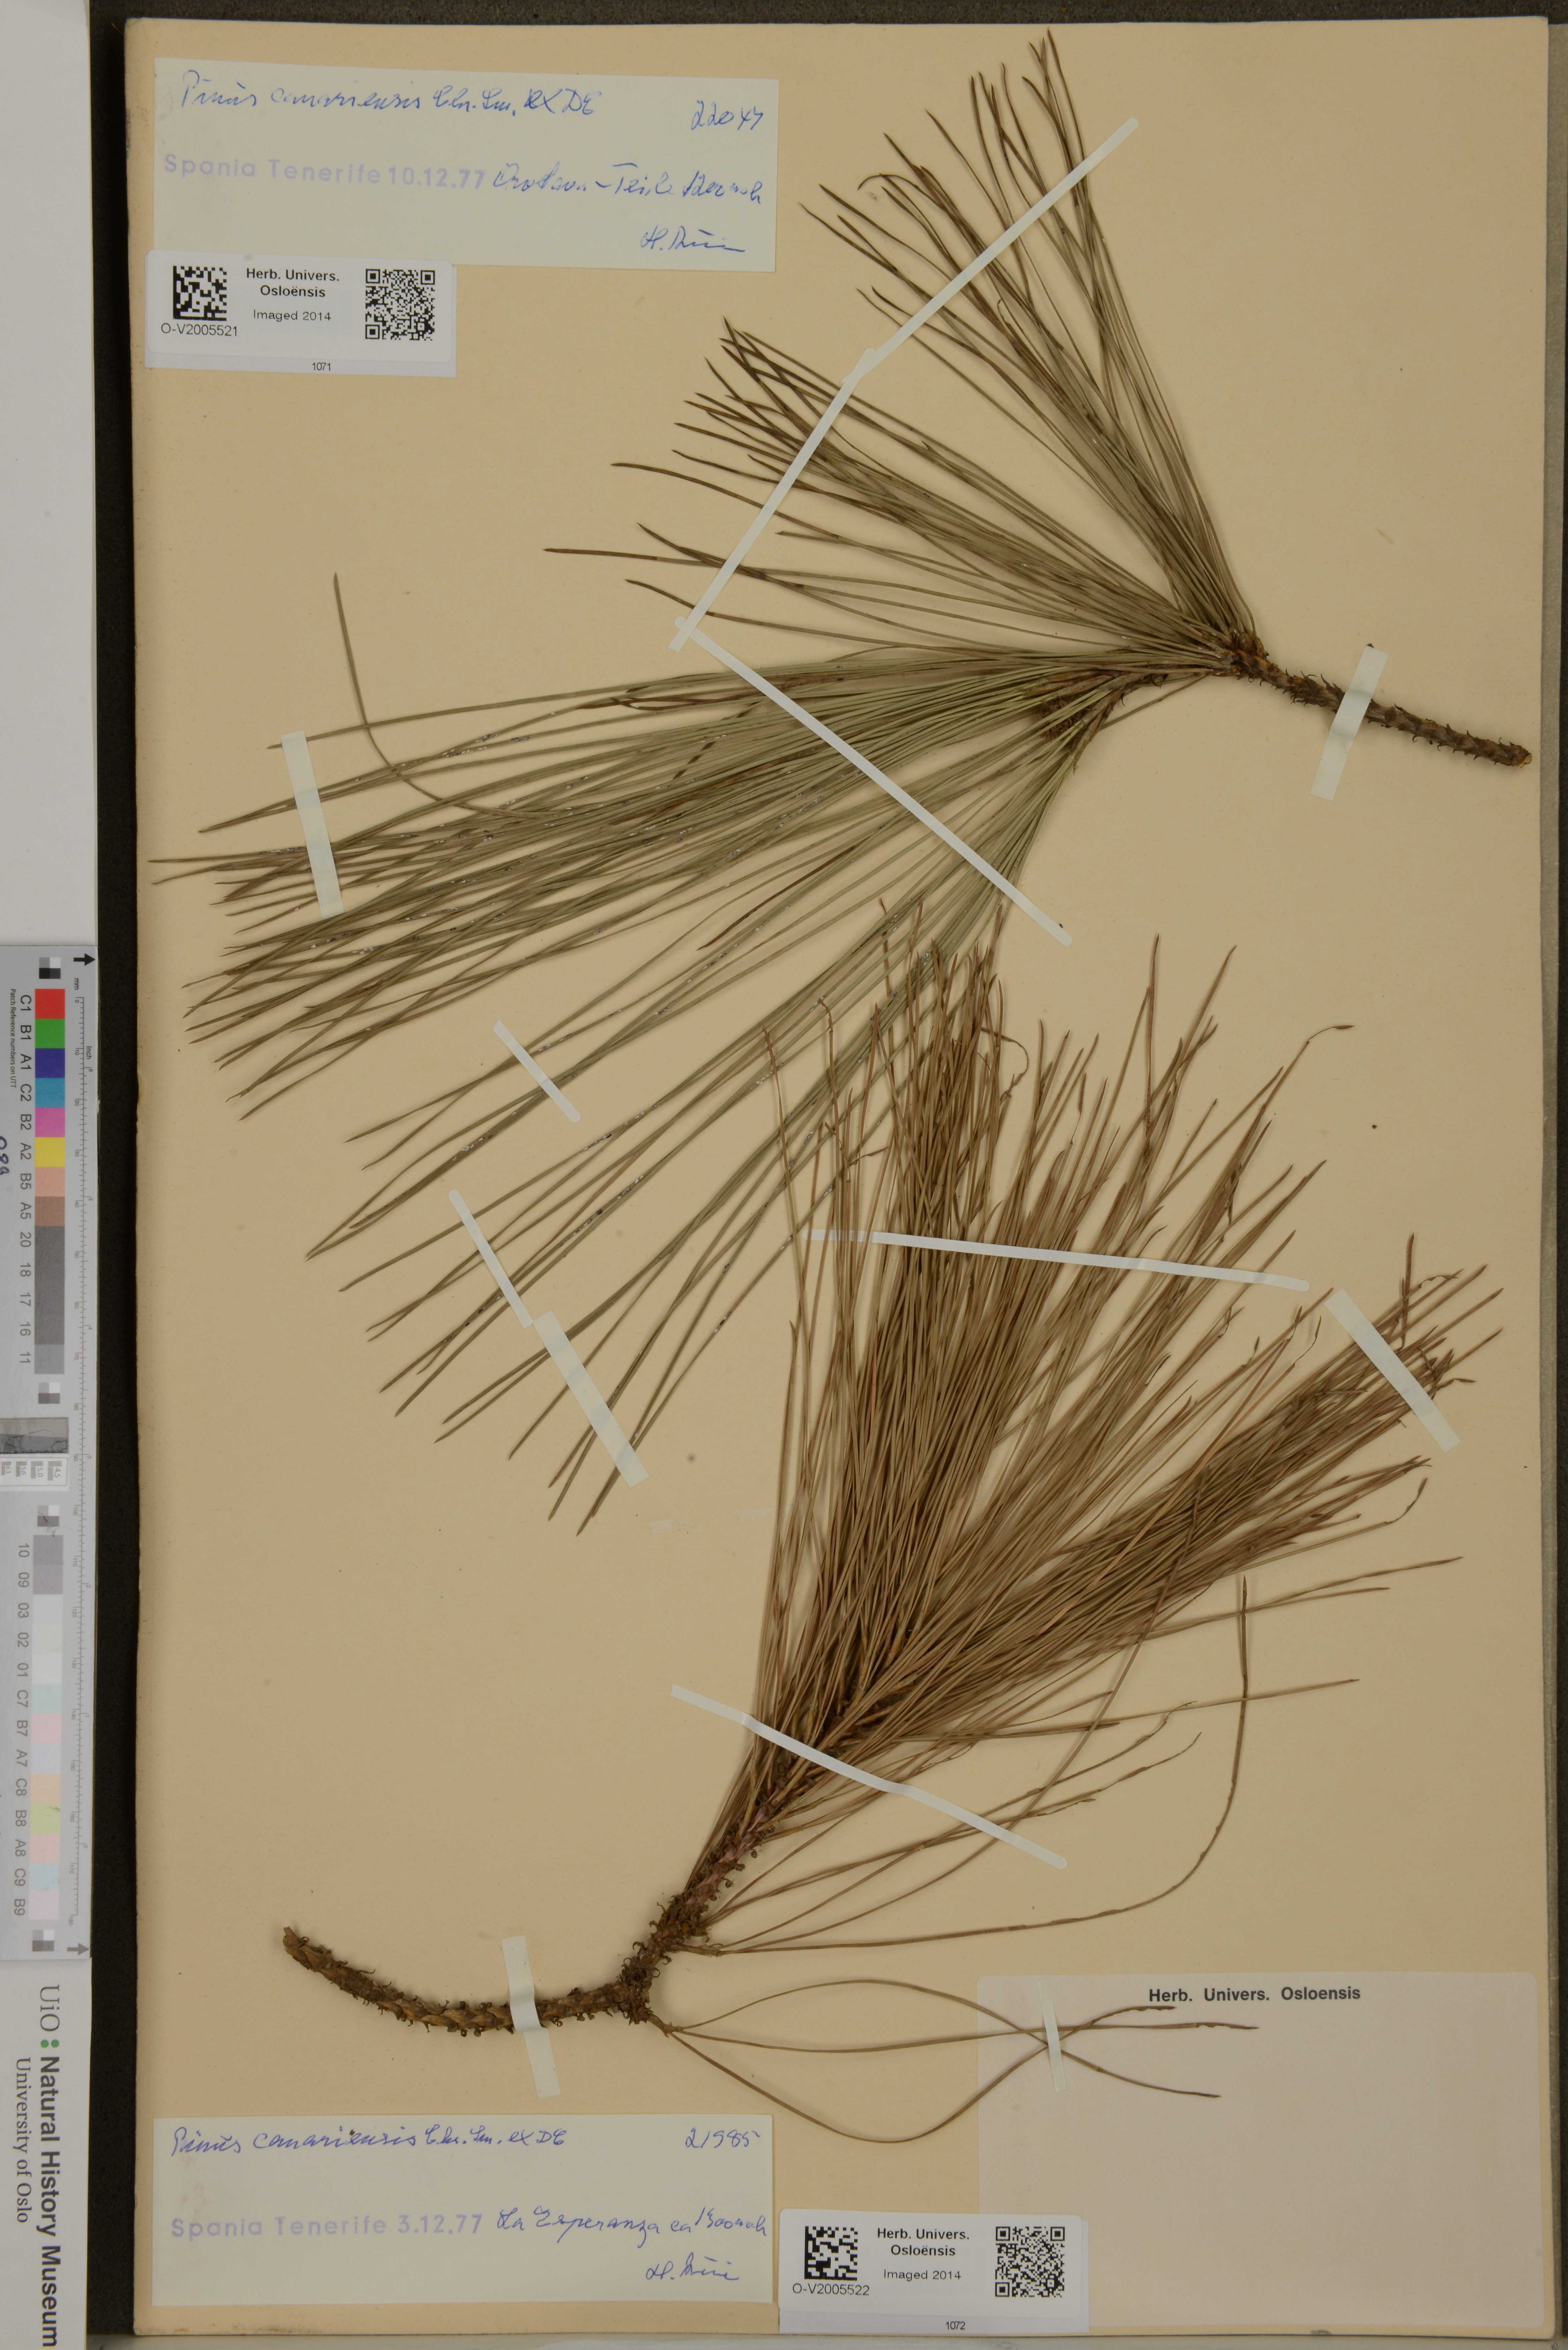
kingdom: Plantae
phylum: Tracheophyta
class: Pinopsida
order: Pinales
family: Pinaceae
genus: Pinus
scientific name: Pinus canariensis
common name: Canary islands pine
